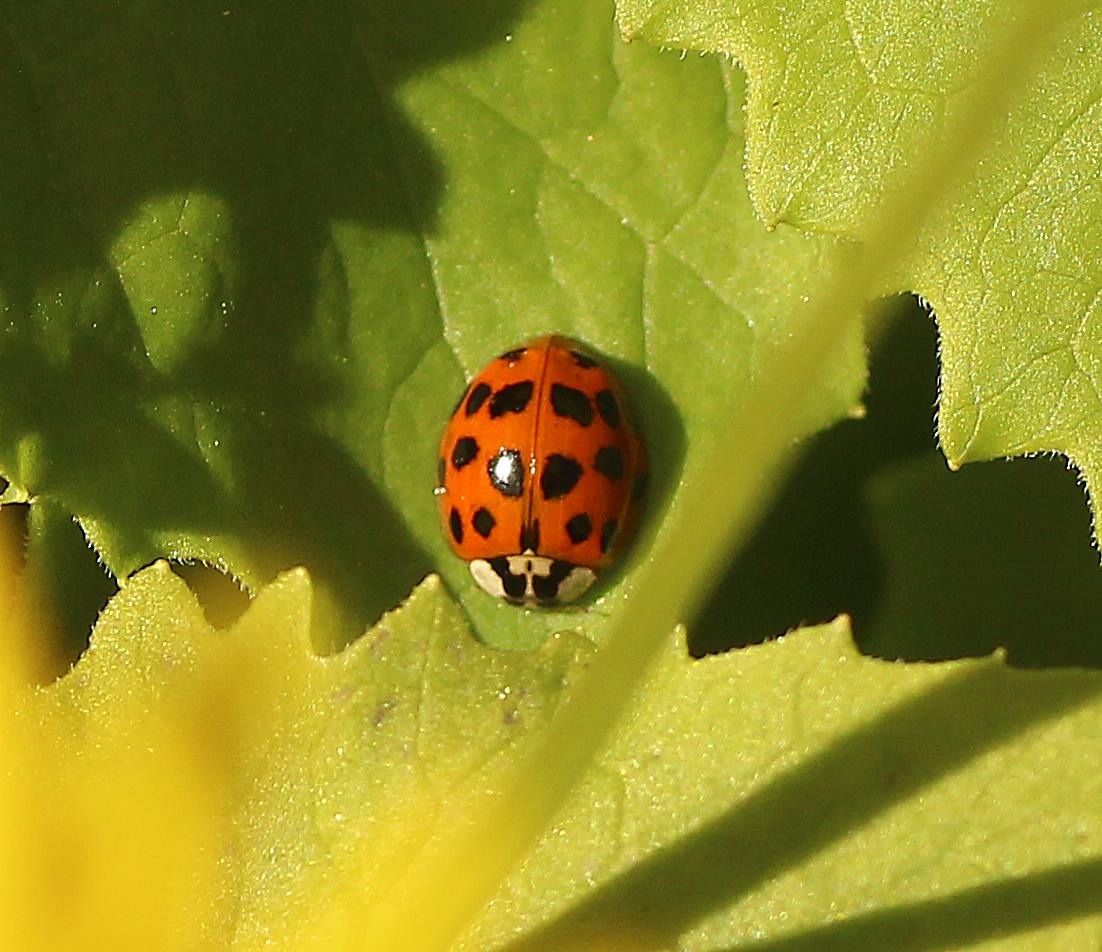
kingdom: Animalia
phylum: Arthropoda
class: Insecta
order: Coleoptera
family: Coccinellidae
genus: Harmonia
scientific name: Harmonia axyridis
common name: Harlekinmariehøne
